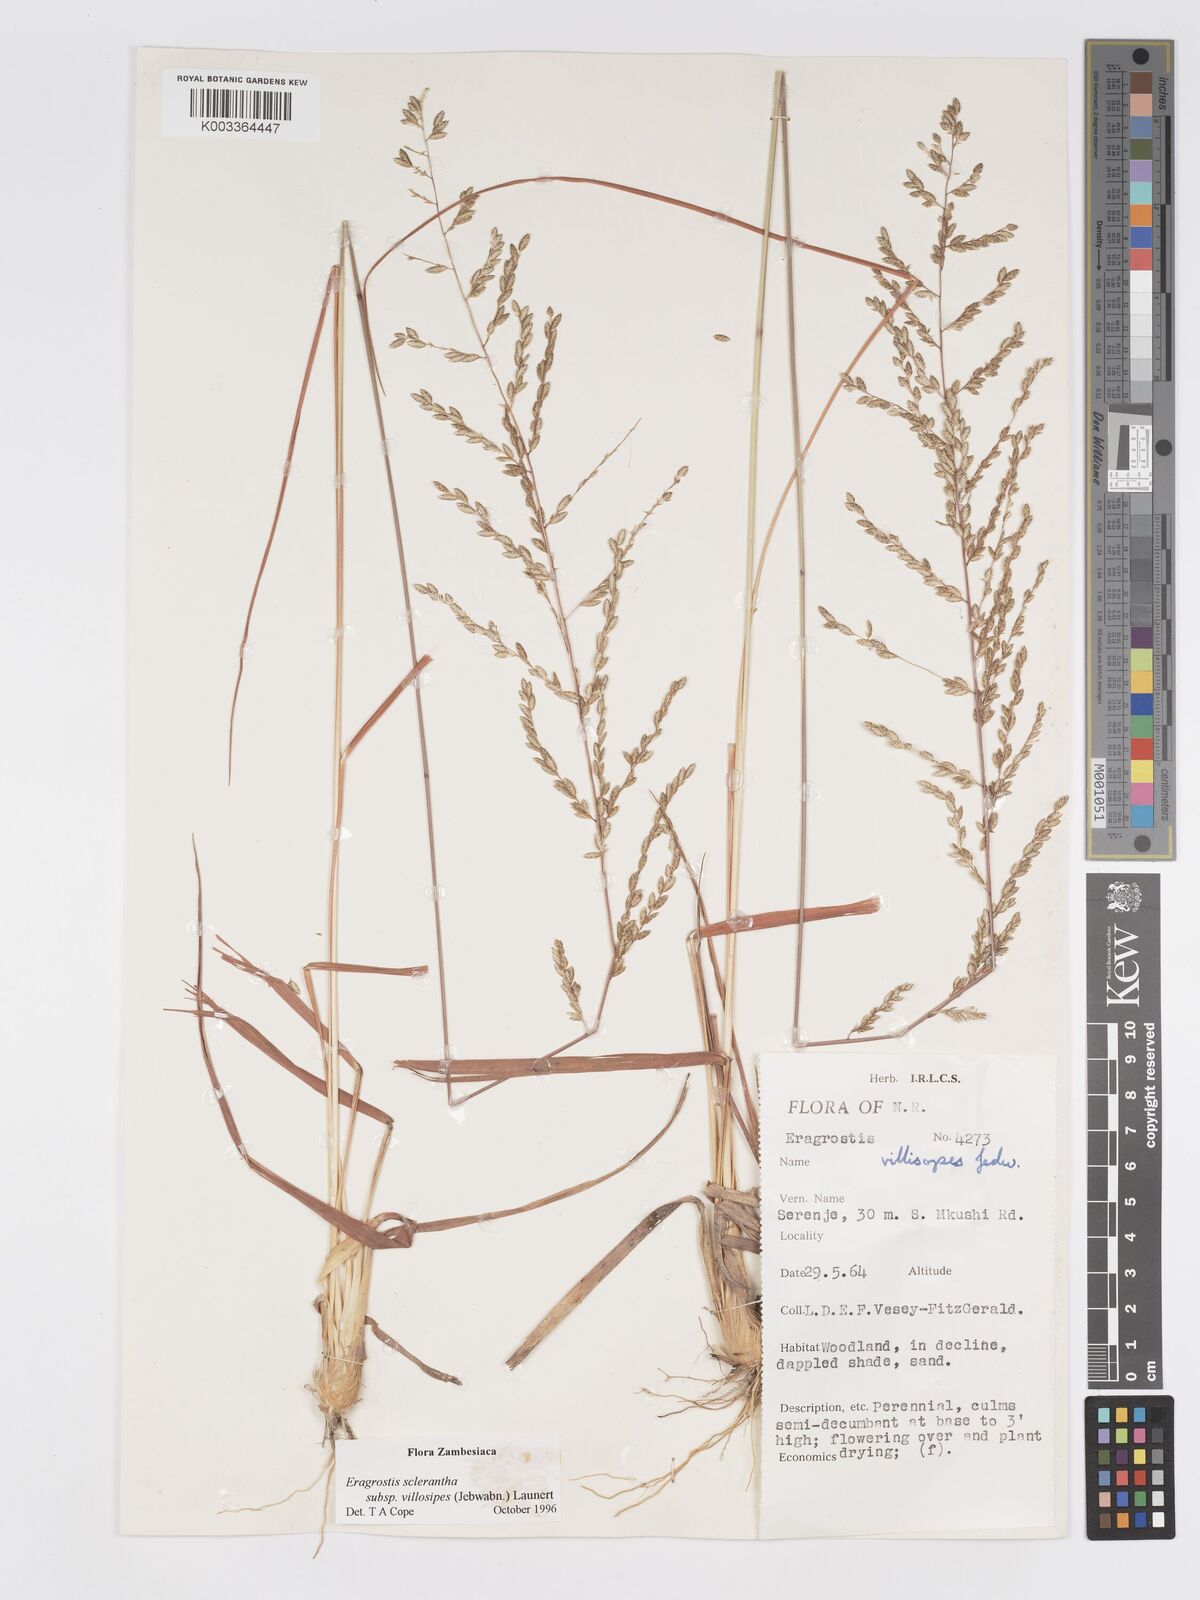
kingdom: Plantae
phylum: Tracheophyta
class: Liliopsida
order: Poales
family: Poaceae
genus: Eragrostis
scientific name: Eragrostis sclerantha
